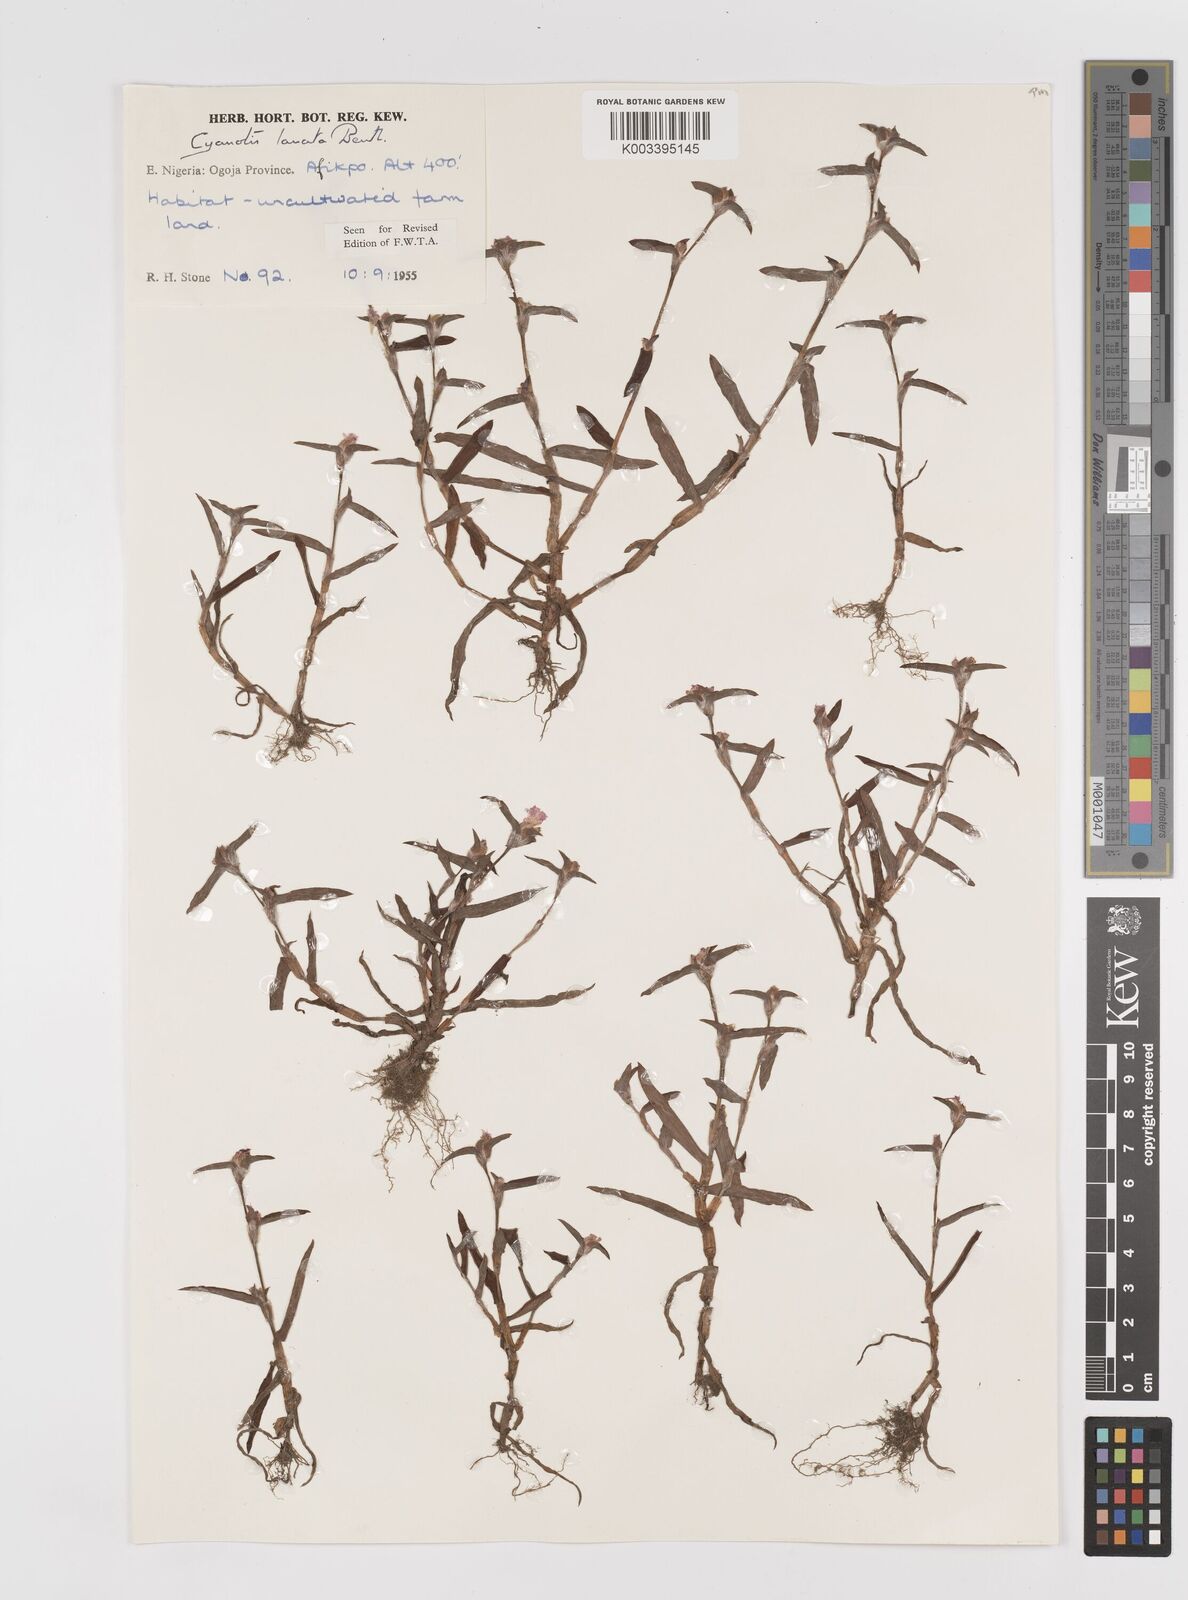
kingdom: Plantae
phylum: Tracheophyta
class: Liliopsida
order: Commelinales
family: Commelinaceae
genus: Cyanotis
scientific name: Cyanotis lanata
